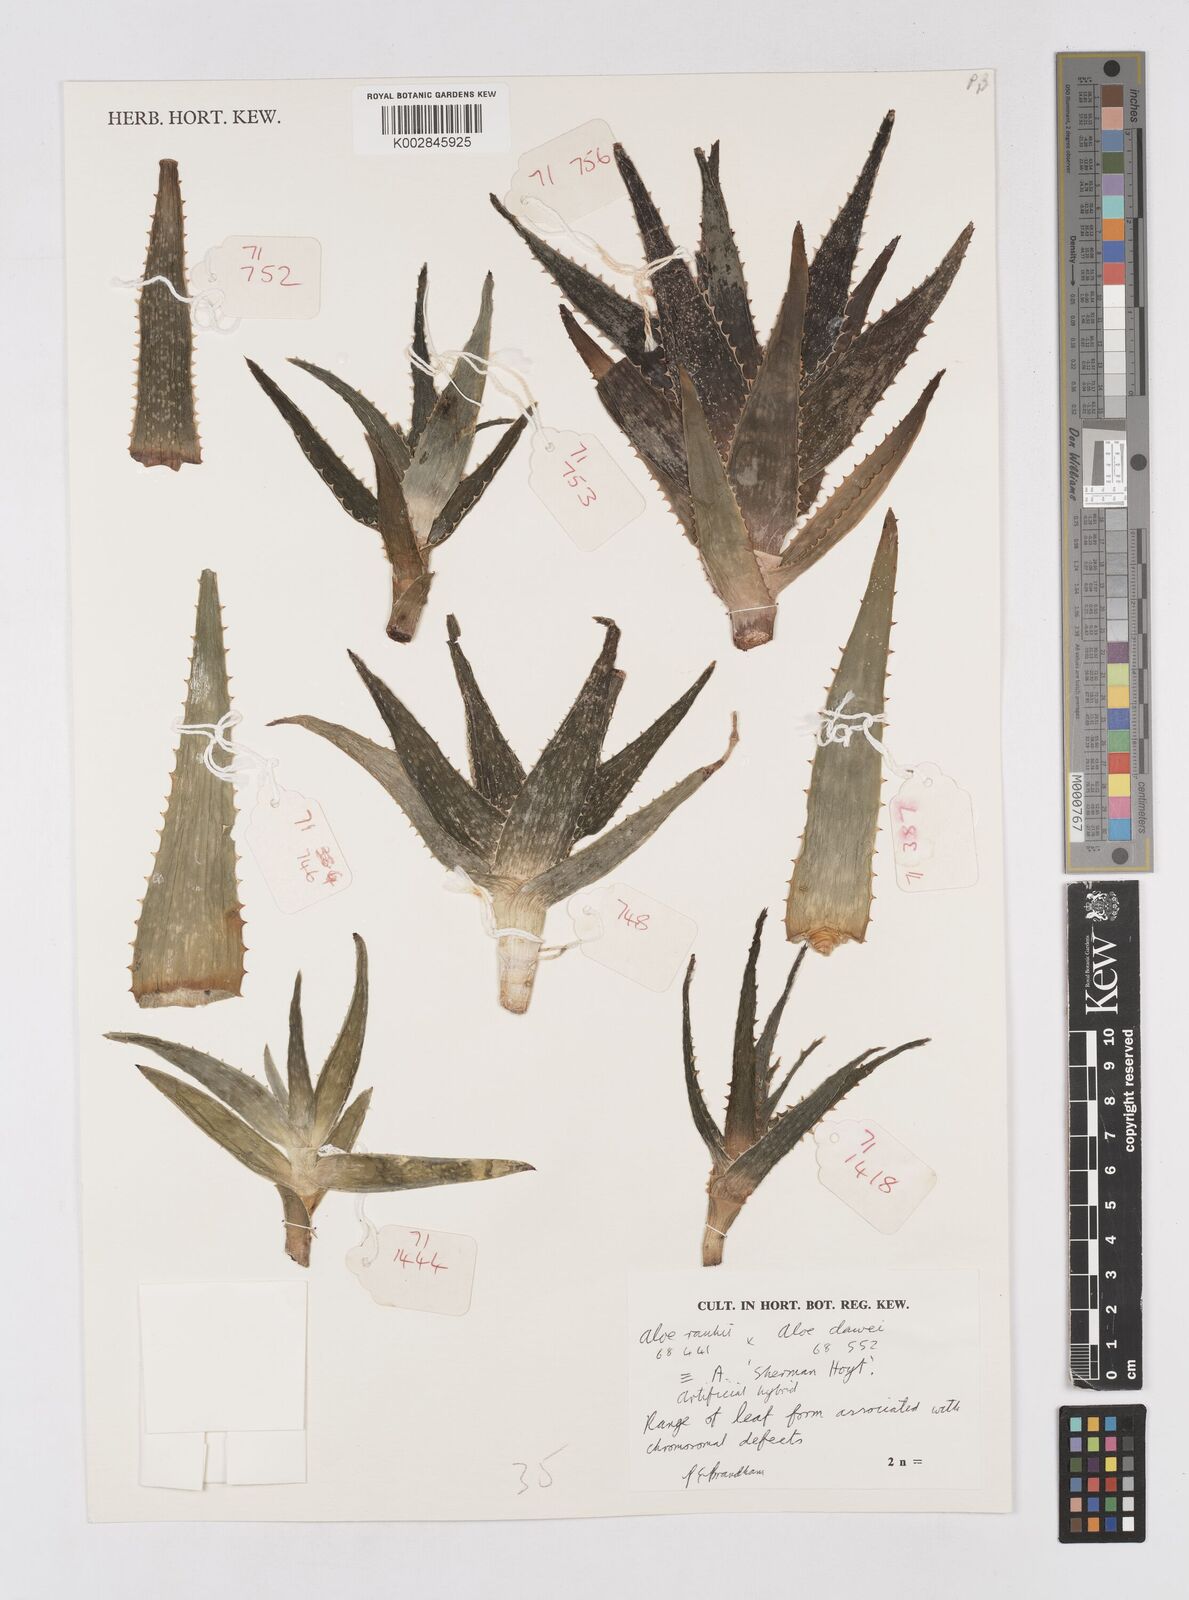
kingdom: Plantae
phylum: Tracheophyta
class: Liliopsida
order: Asparagales
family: Asphodelaceae
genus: Aloe
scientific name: Aloe rauhii
